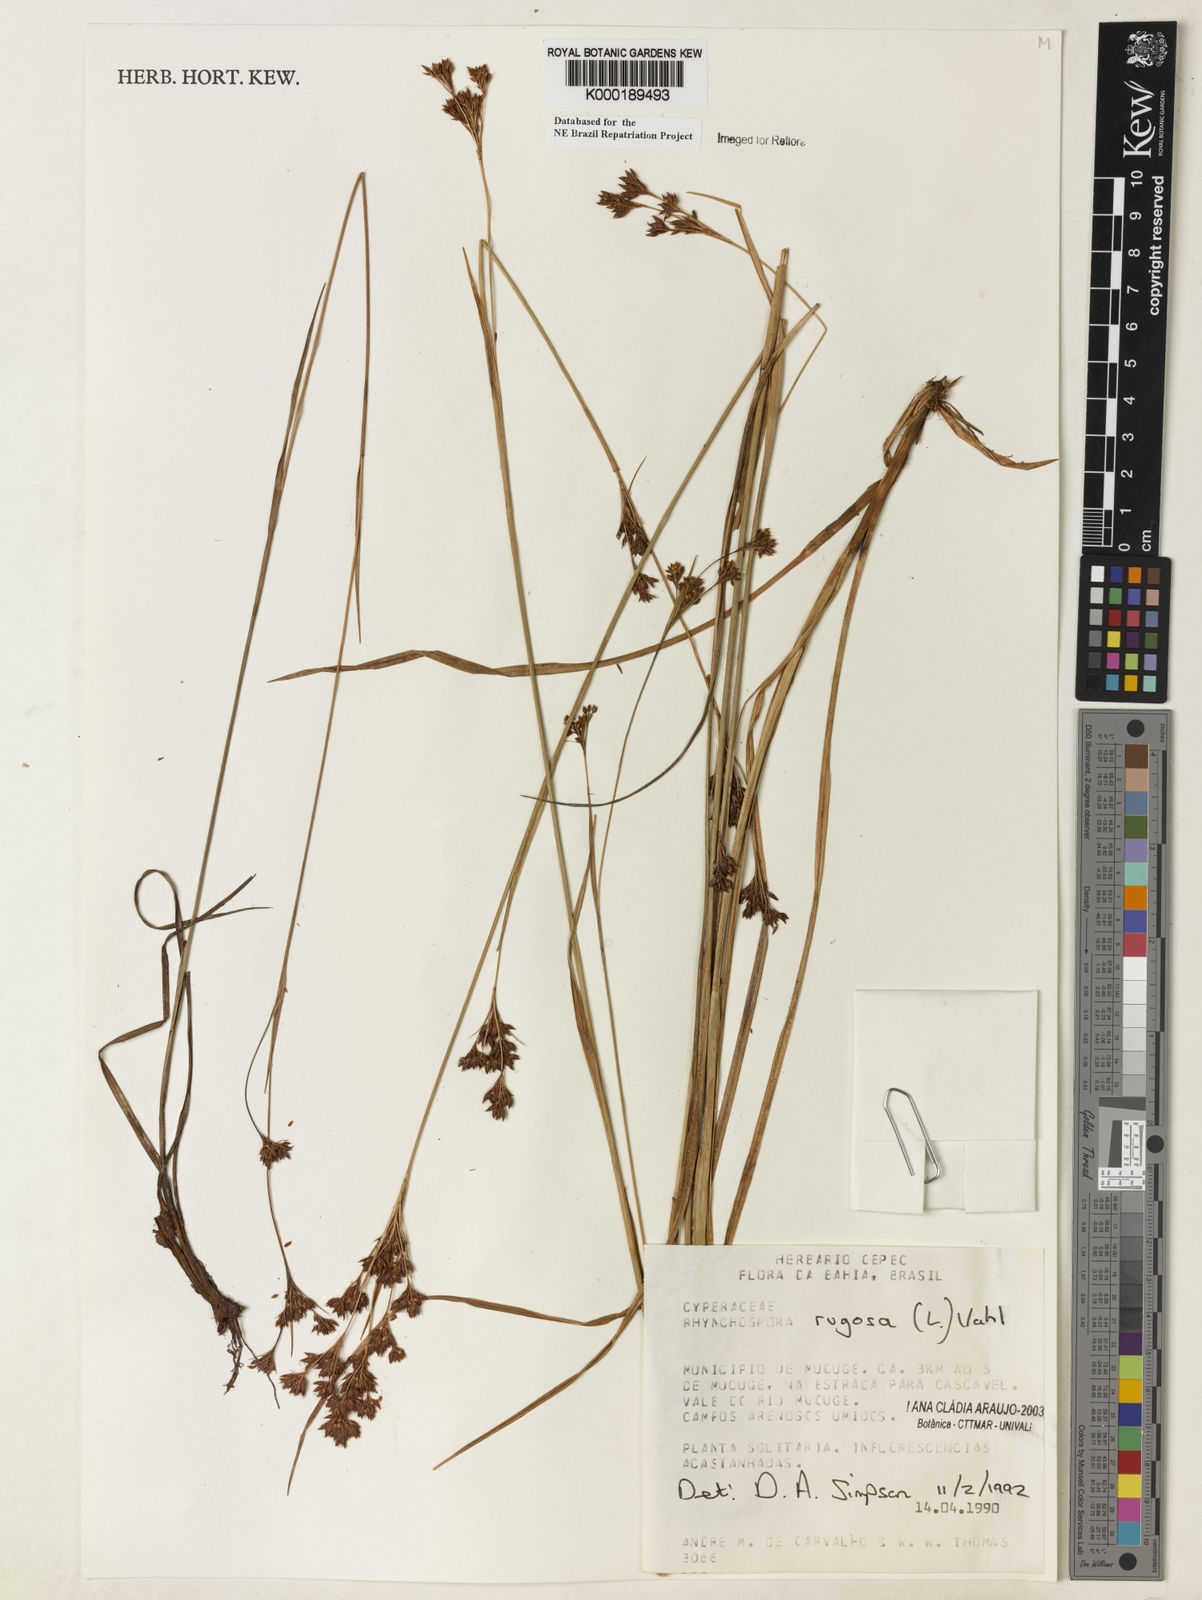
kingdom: Plantae
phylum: Tracheophyta
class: Liliopsida
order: Poales
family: Cyperaceae
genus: Rhynchospora
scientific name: Rhynchospora rugosa
